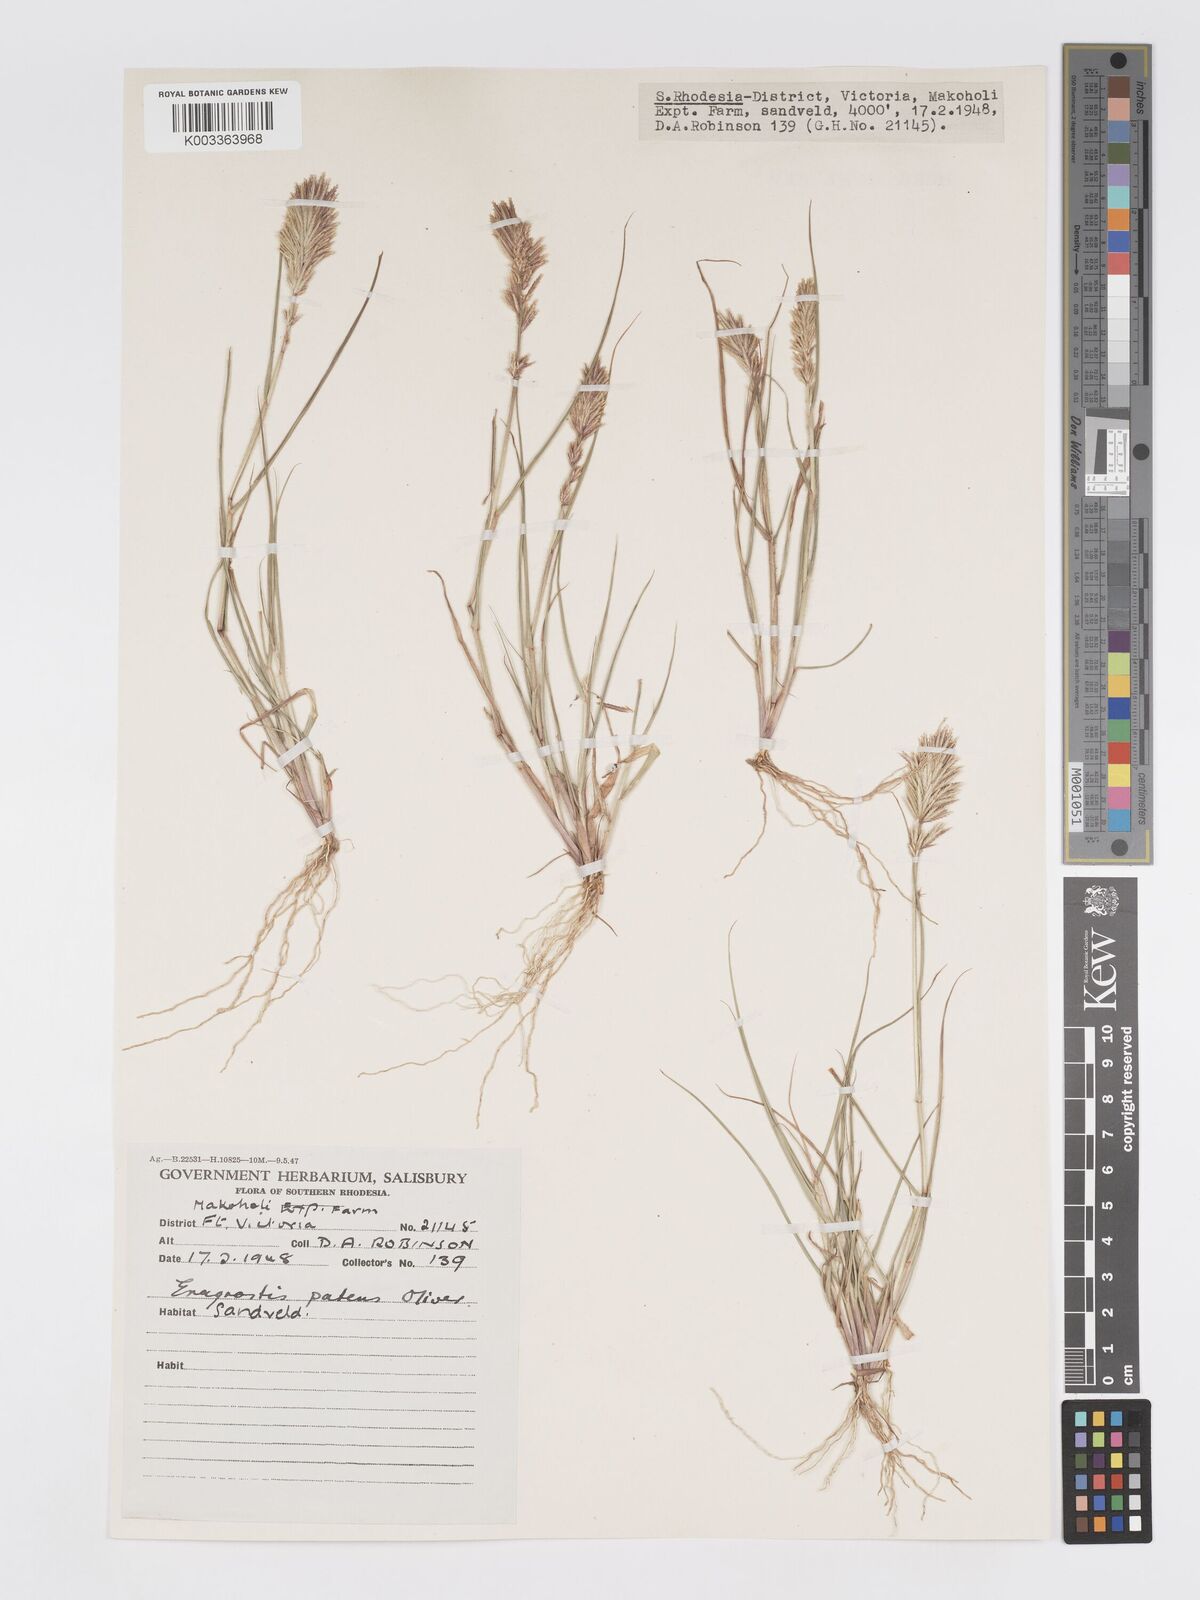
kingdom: Plantae
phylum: Tracheophyta
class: Liliopsida
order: Poales
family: Poaceae
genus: Eragrostis
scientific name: Eragrostis patens
